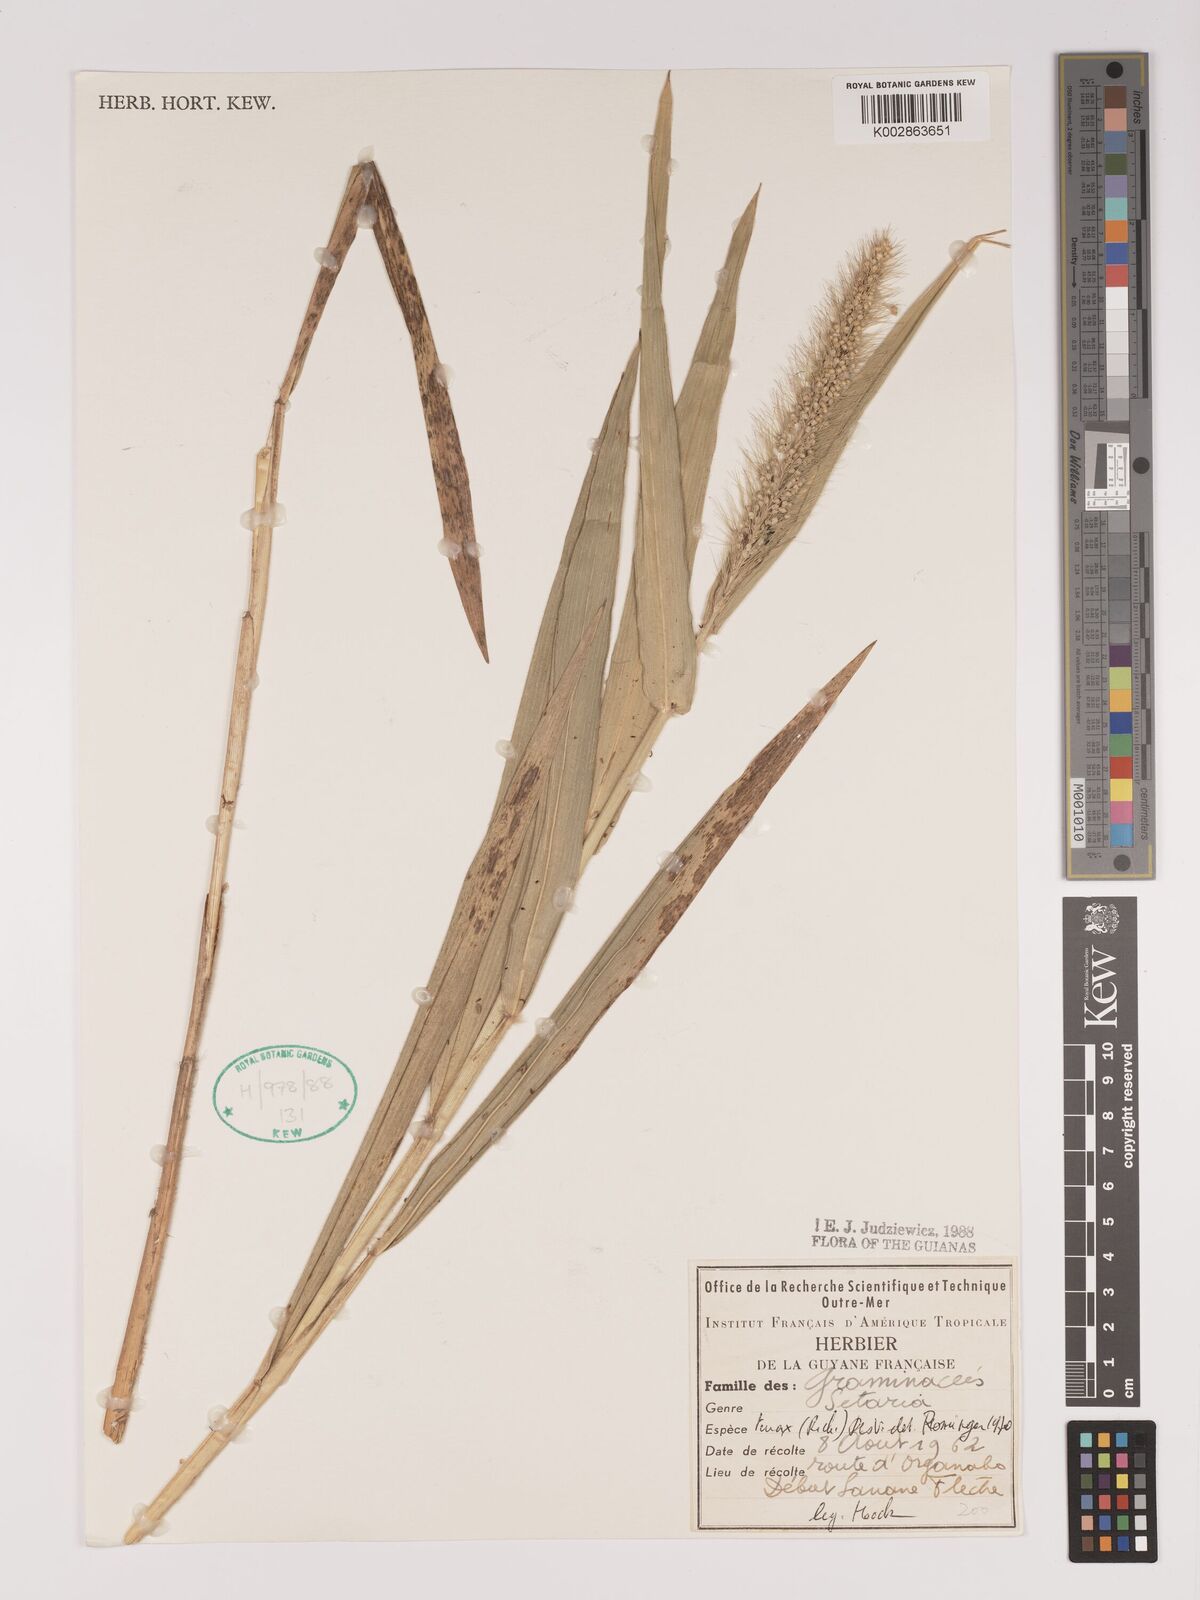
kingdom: Plantae
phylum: Tracheophyta
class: Liliopsida
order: Poales
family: Poaceae
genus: Setaria
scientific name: Setaria tenax
